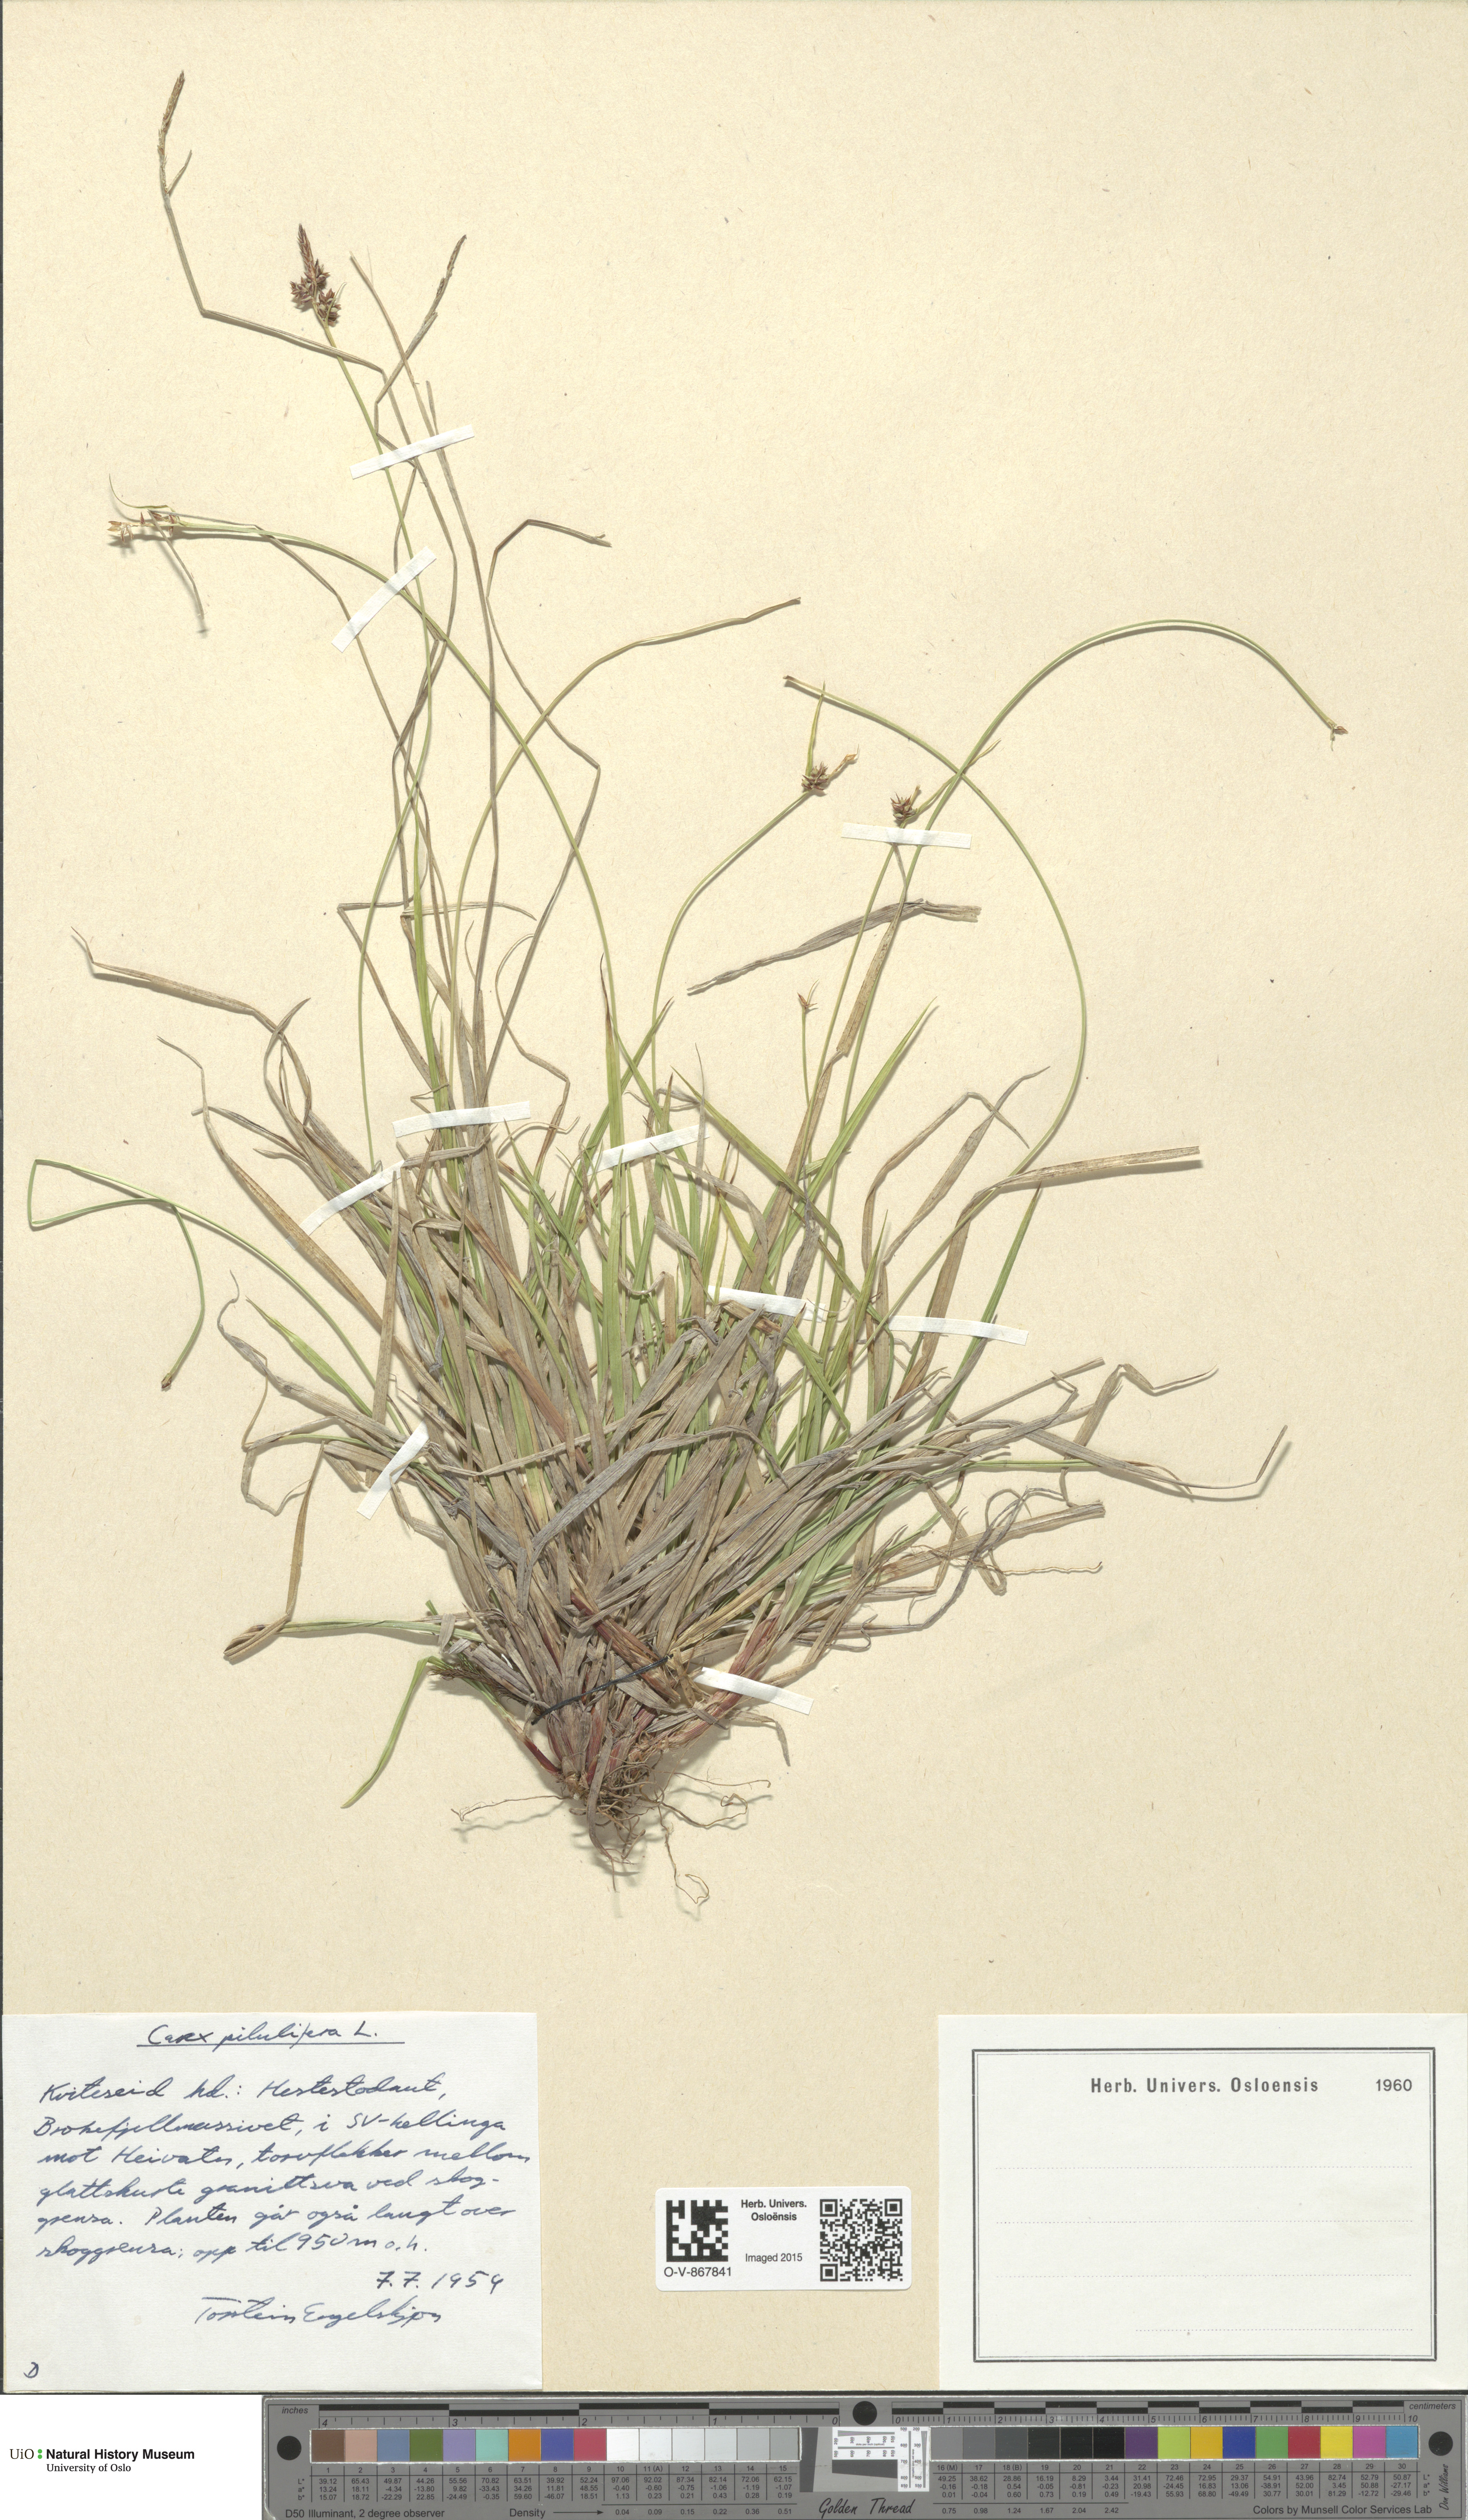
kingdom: Plantae
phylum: Tracheophyta
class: Liliopsida
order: Poales
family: Cyperaceae
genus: Carex
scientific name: Carex pilulifera
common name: Pill sedge
